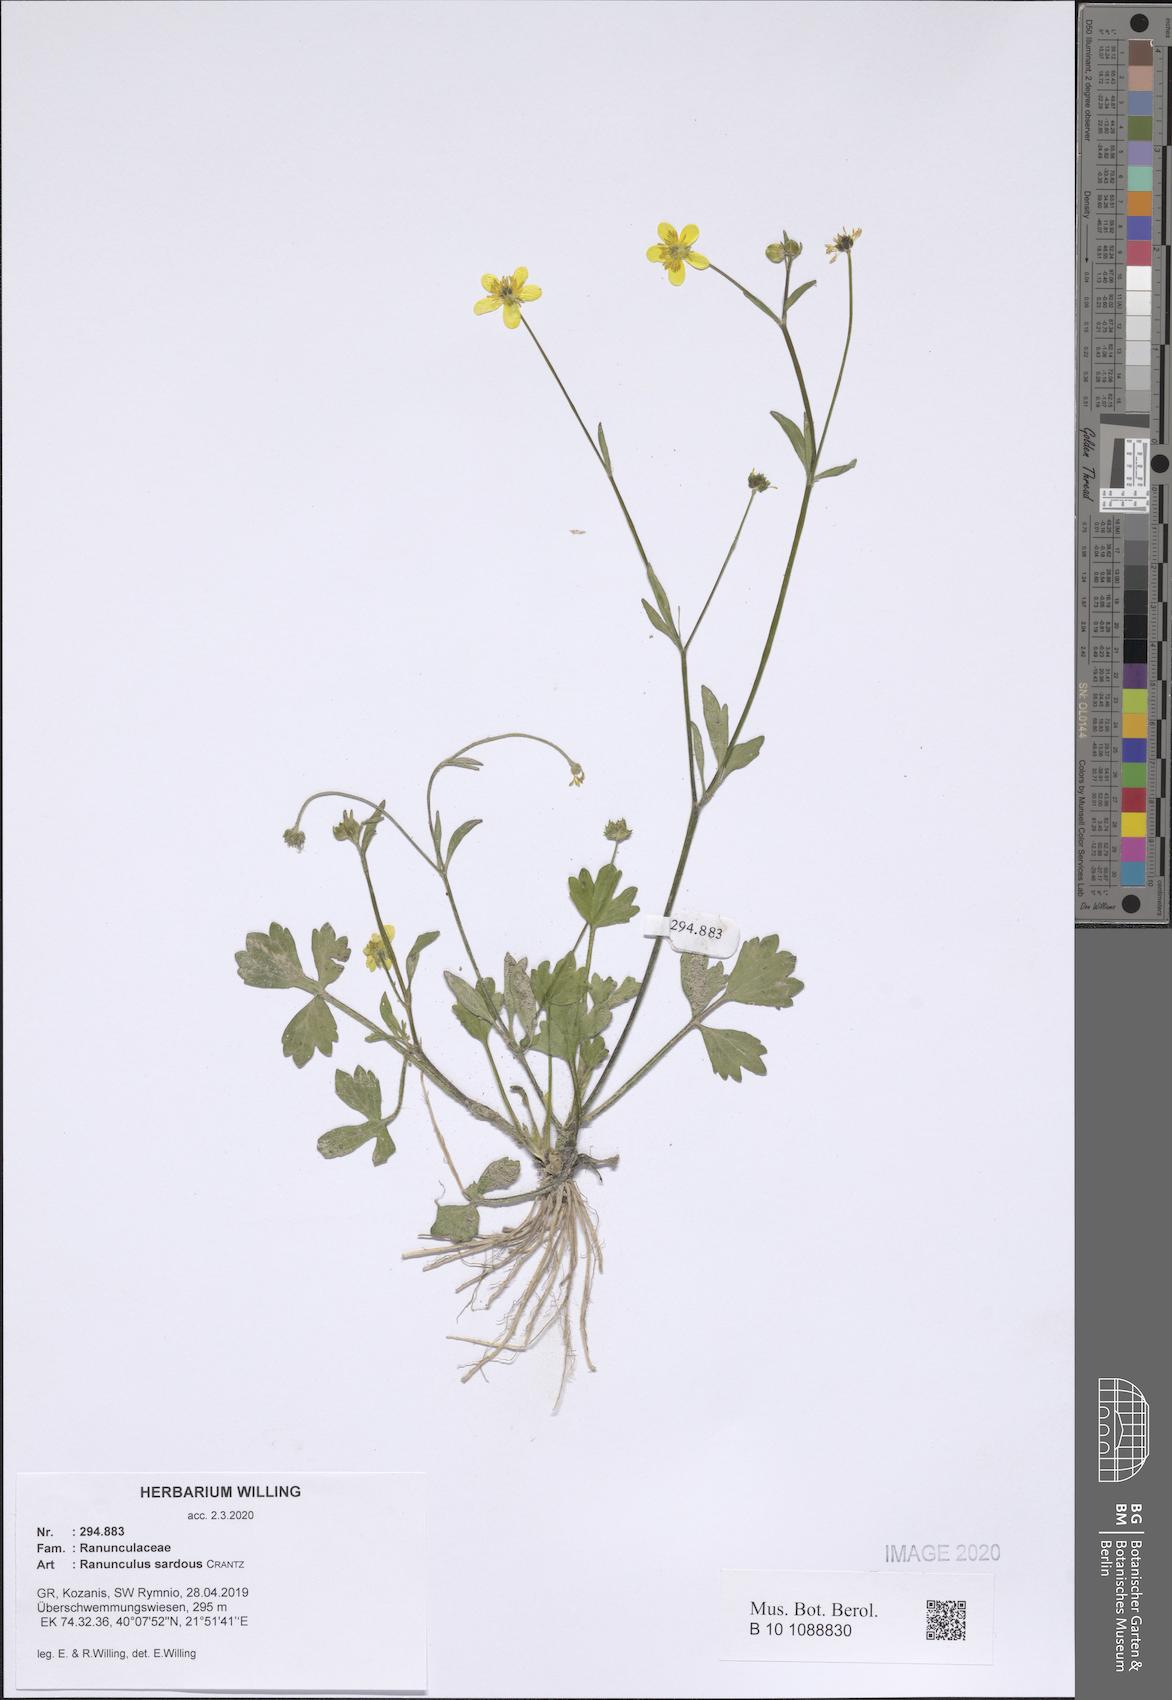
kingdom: Plantae
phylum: Tracheophyta
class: Magnoliopsida
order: Ranunculales
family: Ranunculaceae
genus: Ranunculus
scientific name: Ranunculus sardous
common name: Hairy buttercup
